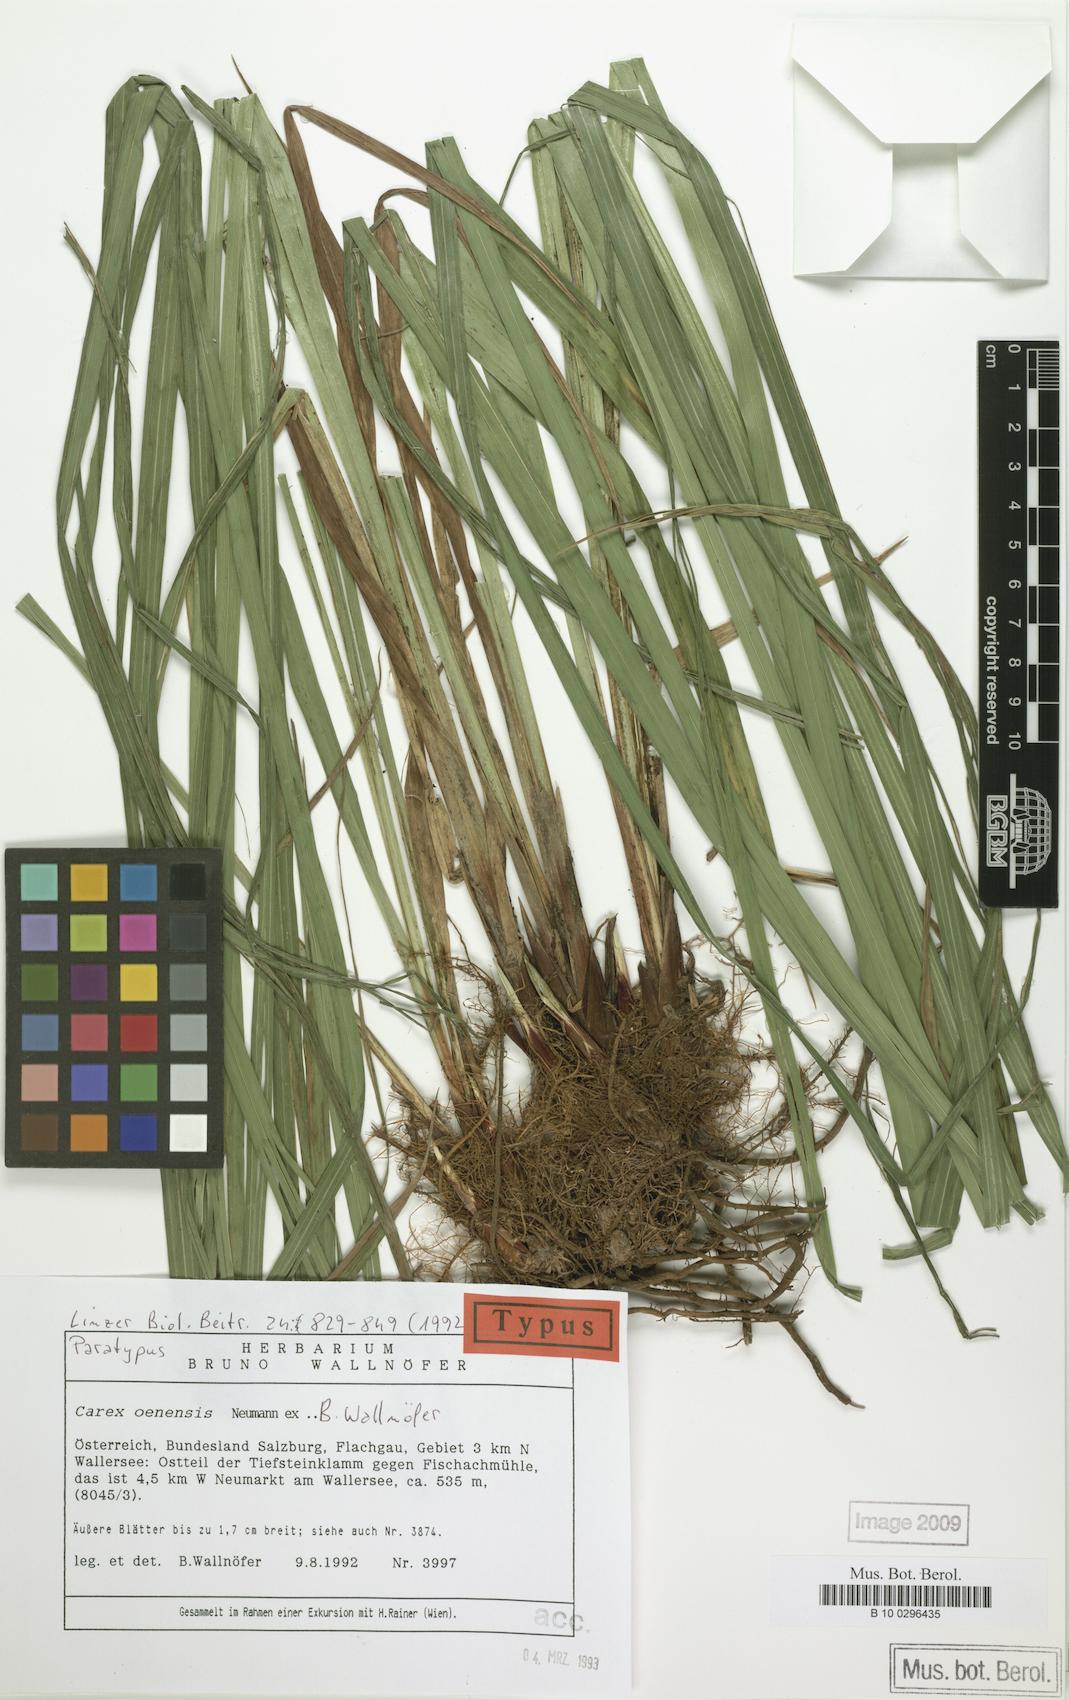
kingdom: Plantae
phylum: Tracheophyta
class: Liliopsida
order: Poales
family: Cyperaceae
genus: Carex
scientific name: Carex oenensis
